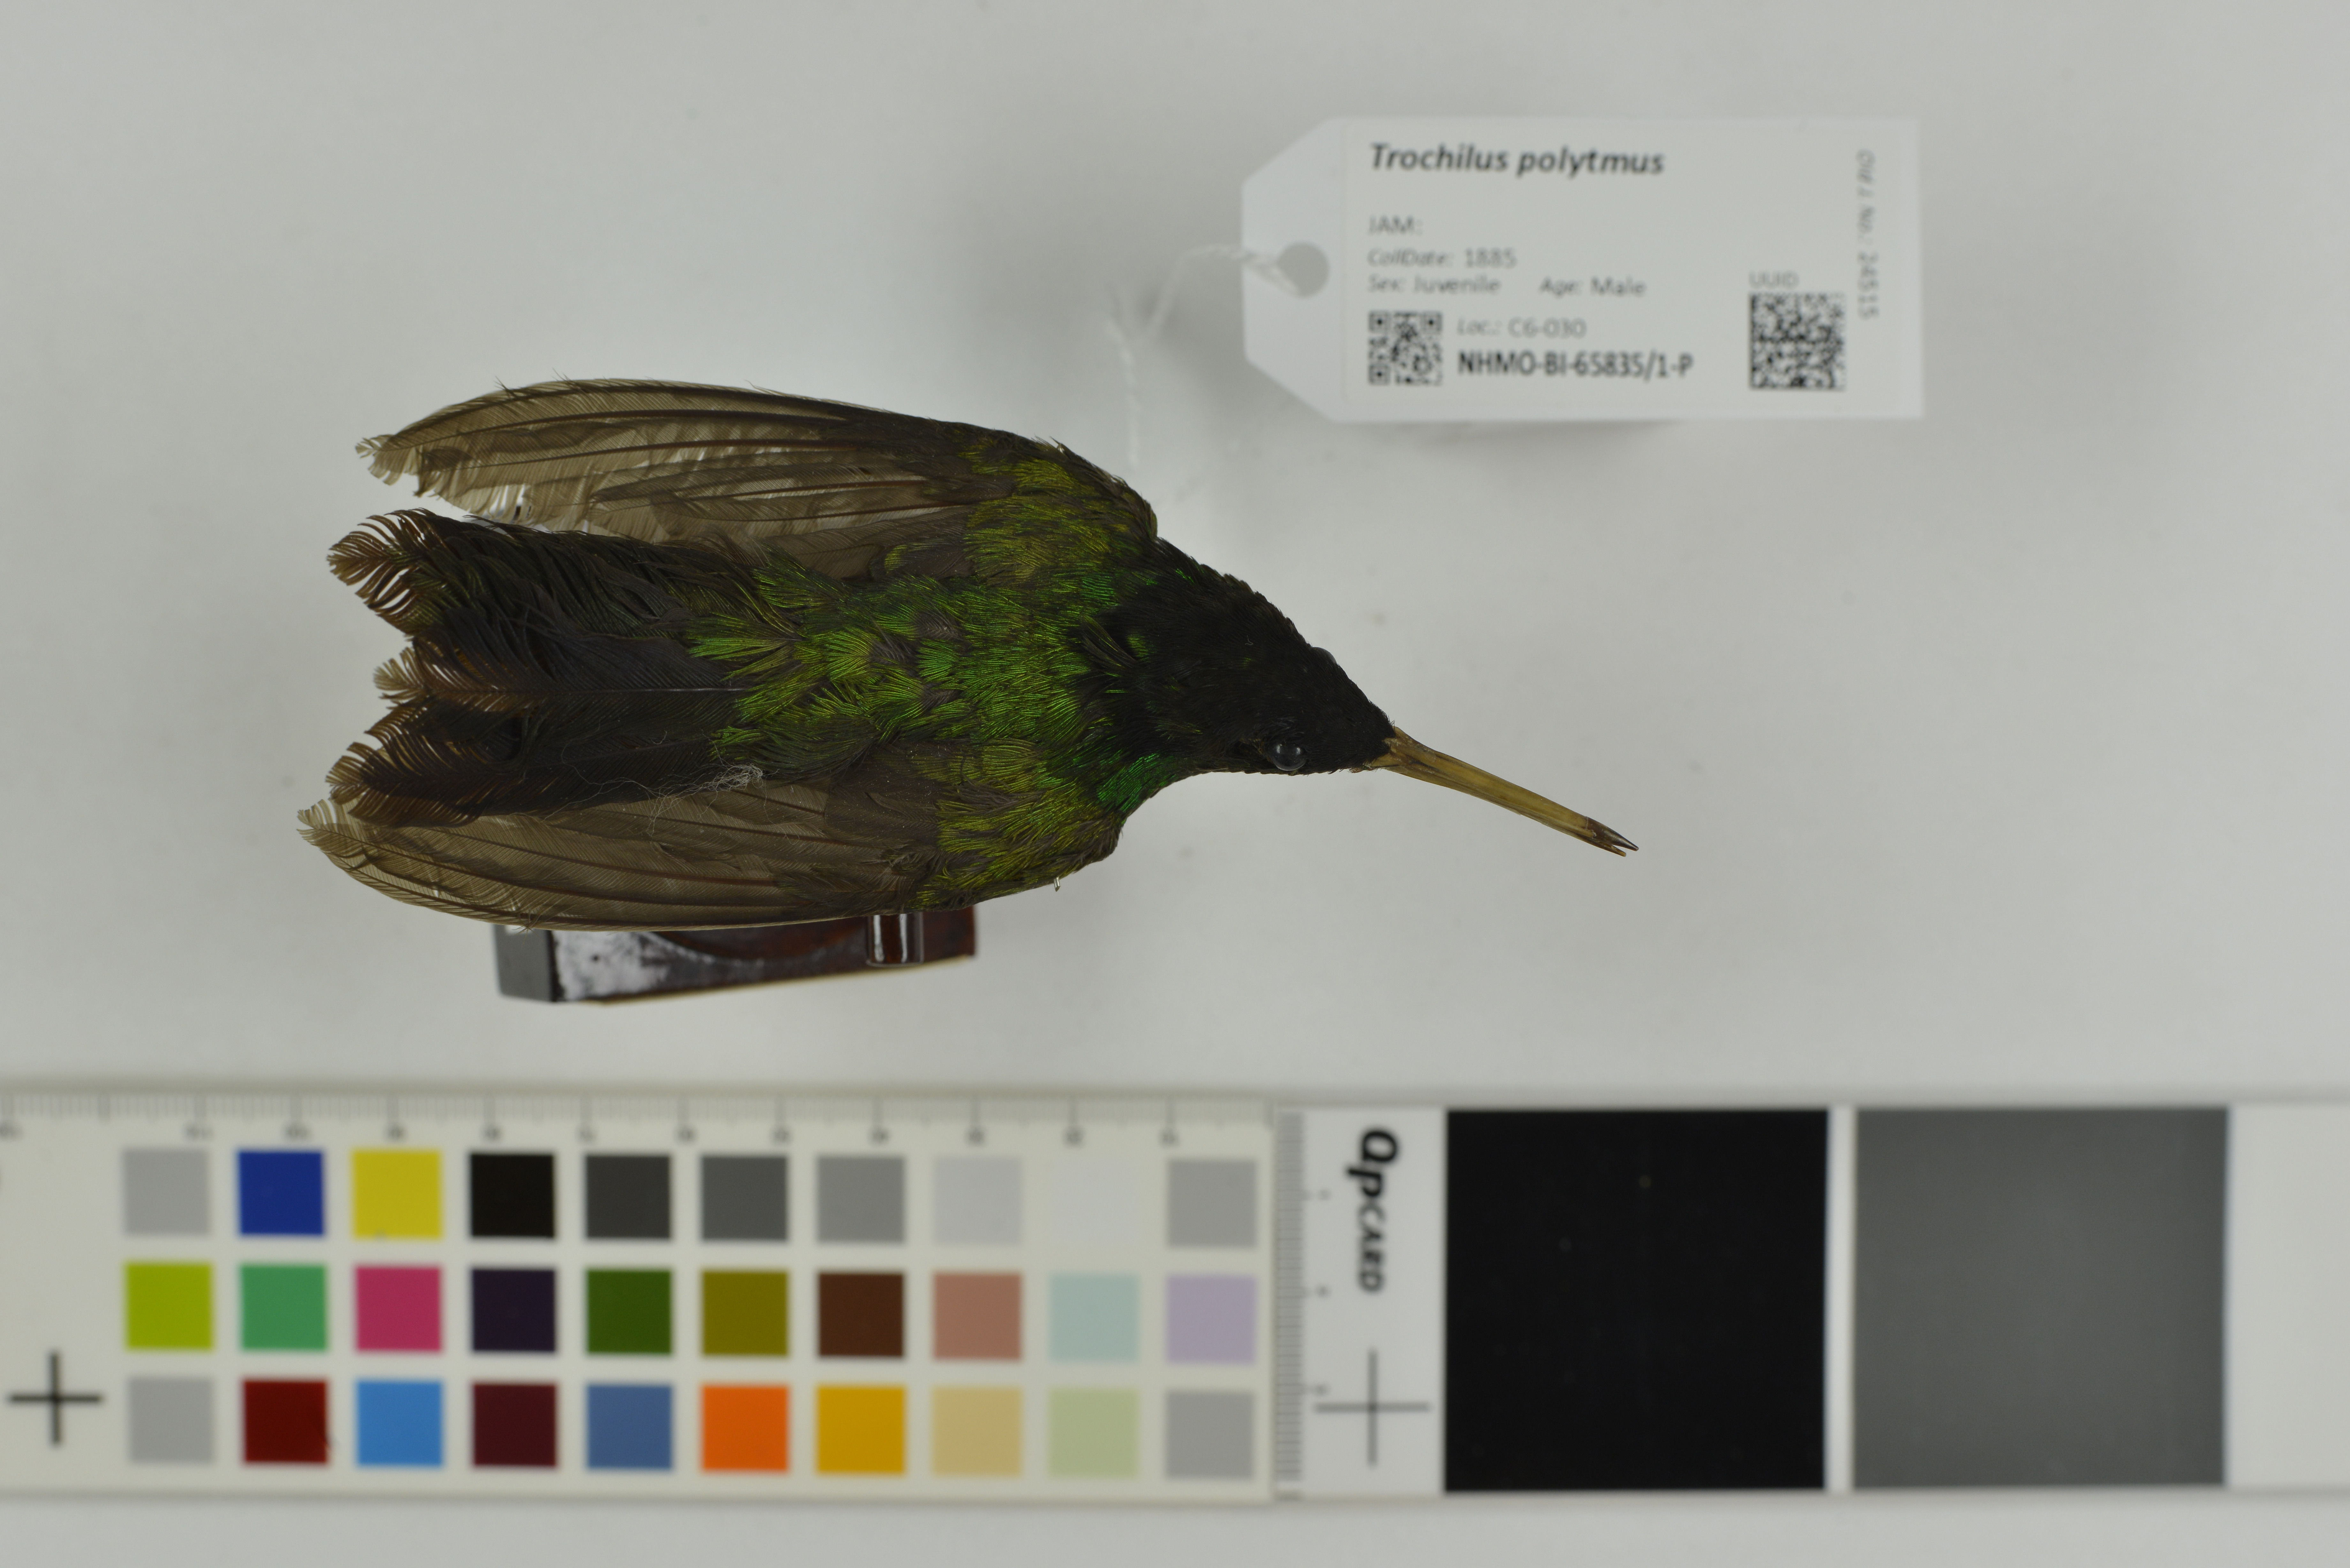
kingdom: Animalia
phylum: Chordata
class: Aves
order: Apodiformes
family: Trochilidae
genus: Trochilus
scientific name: Trochilus polytmus
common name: Red-billed streamertail
